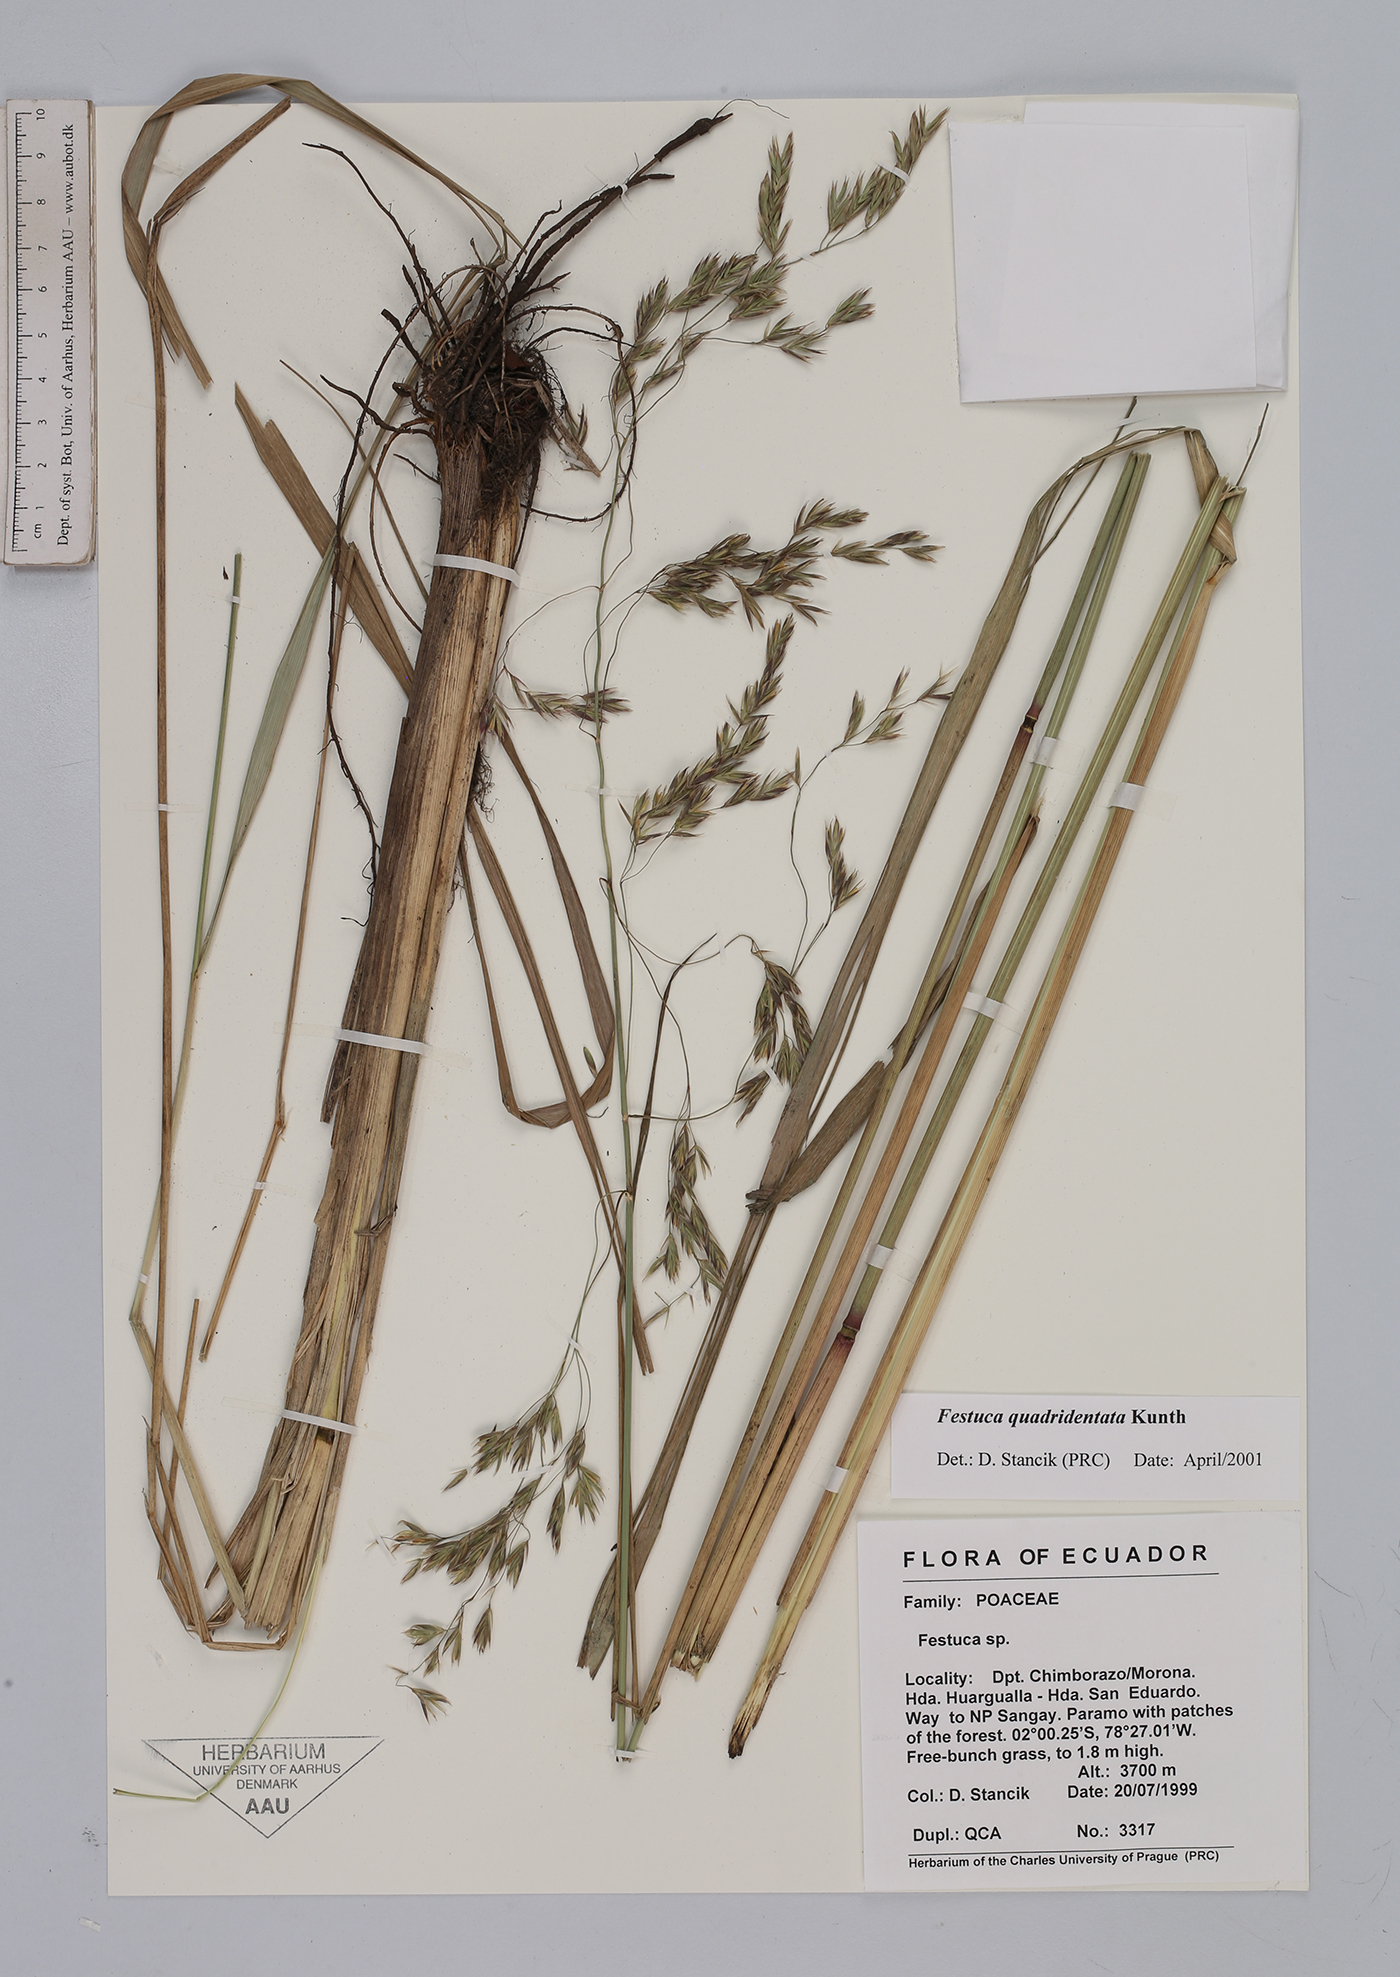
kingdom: Plantae
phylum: Tracheophyta
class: Liliopsida
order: Poales
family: Poaceae
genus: Festuca
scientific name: Festuca quadridentata
